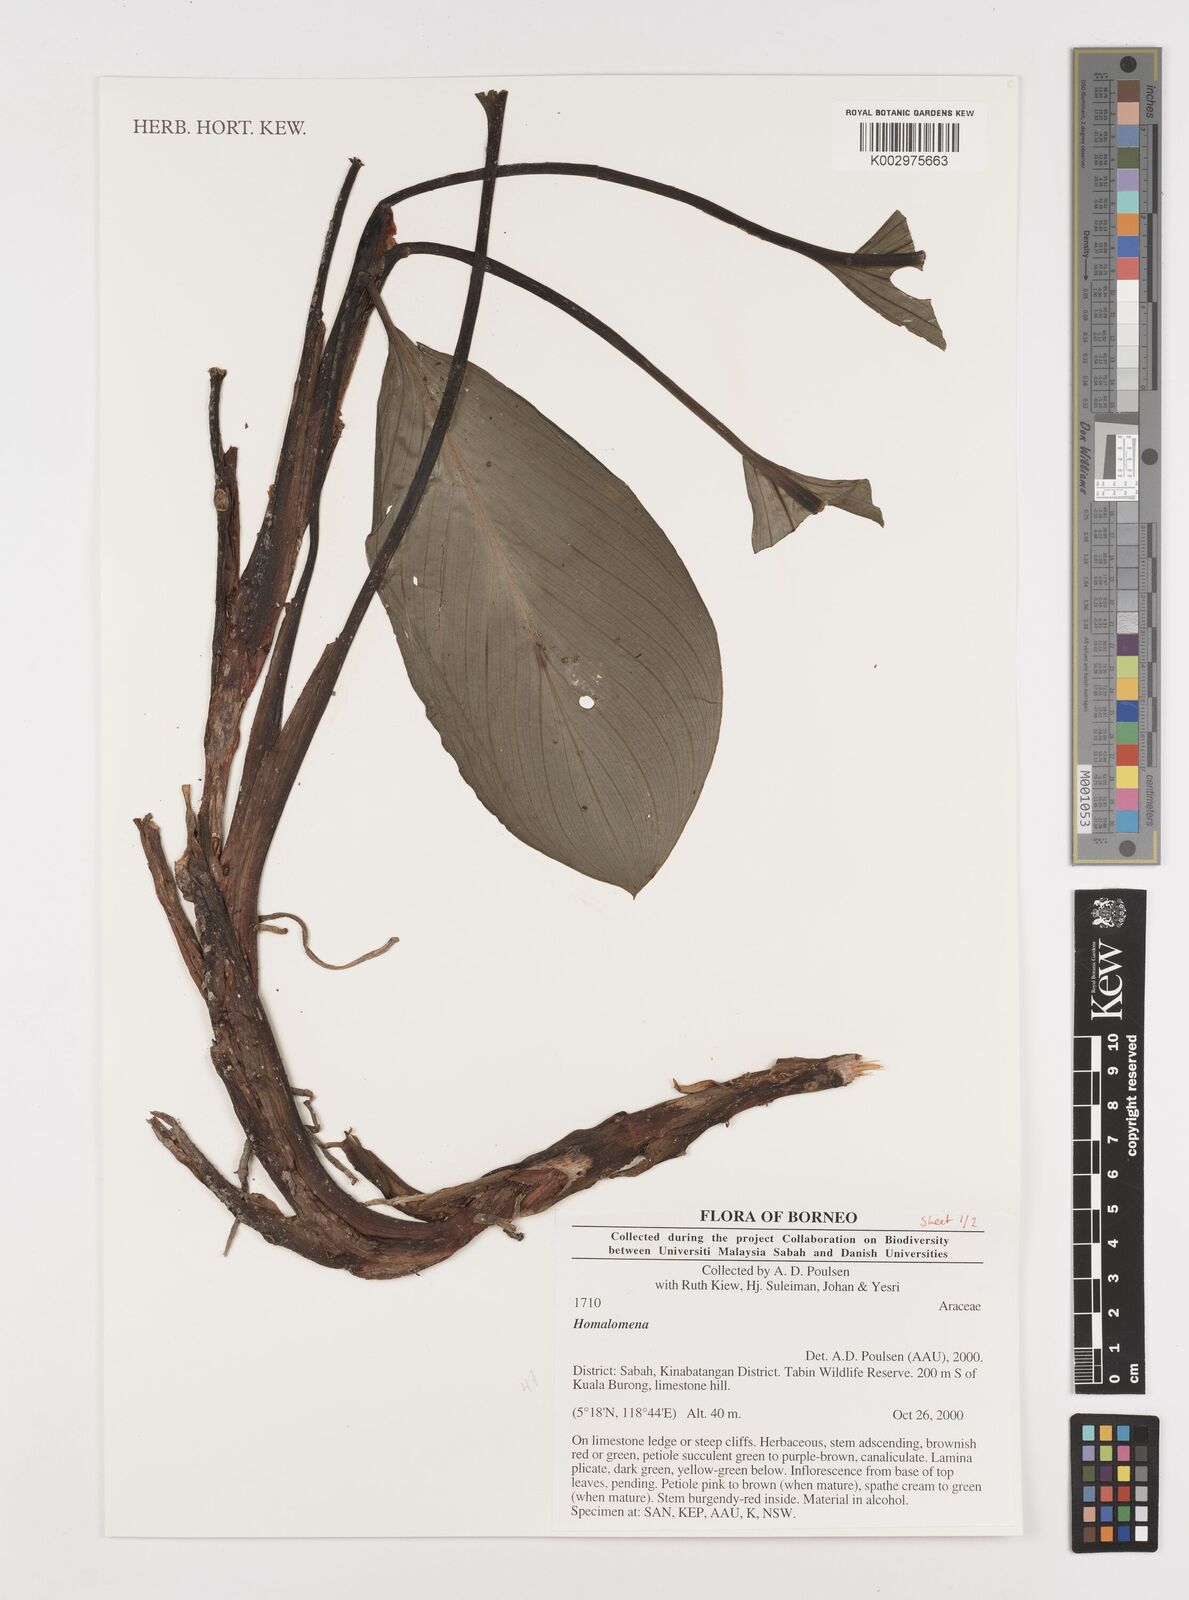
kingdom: Plantae
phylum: Tracheophyta
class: Liliopsida
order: Alismatales
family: Araceae
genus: Homalomena
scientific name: Homalomena
